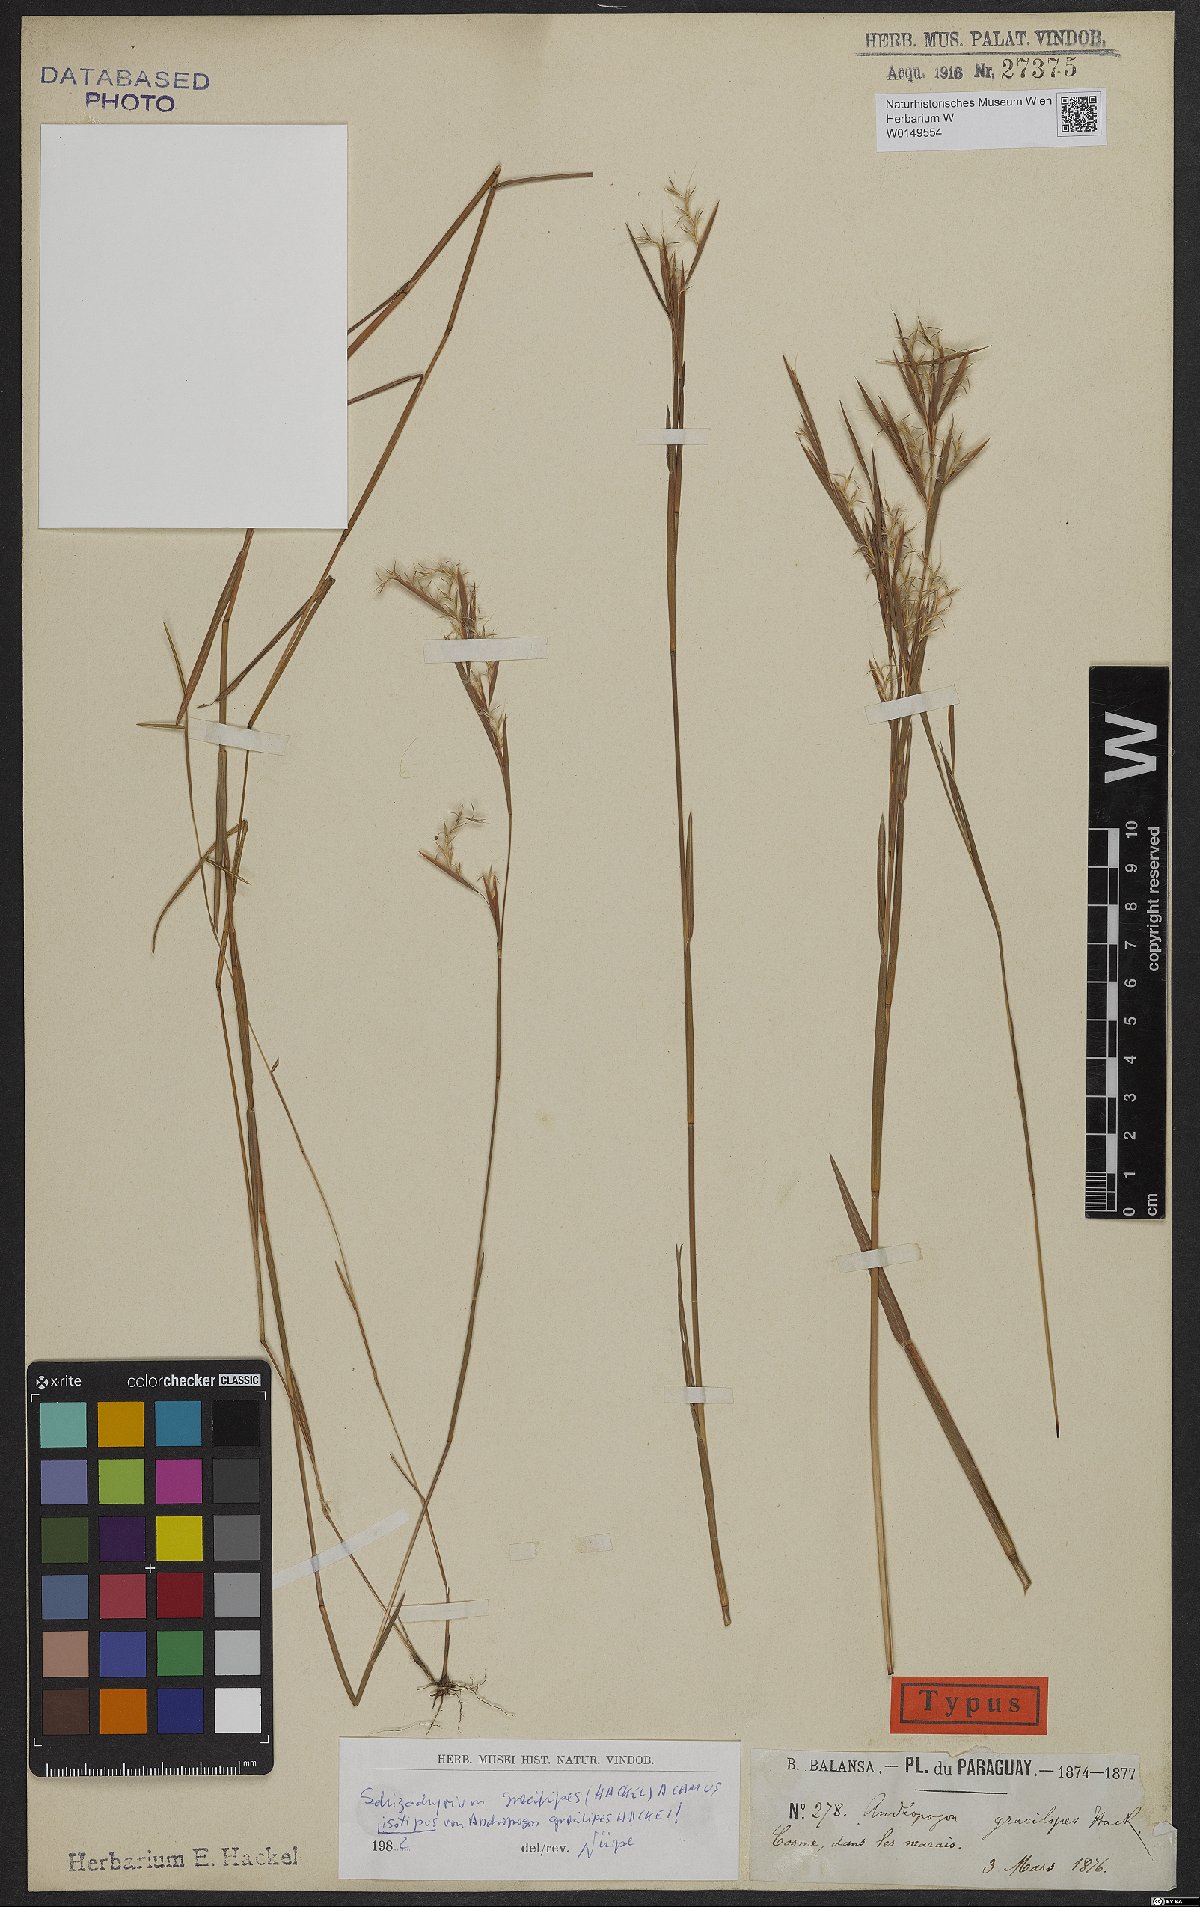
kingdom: Plantae
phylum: Tracheophyta
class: Liliopsida
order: Poales
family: Poaceae
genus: Schizachyrium
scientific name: Schizachyrium gracilipes
